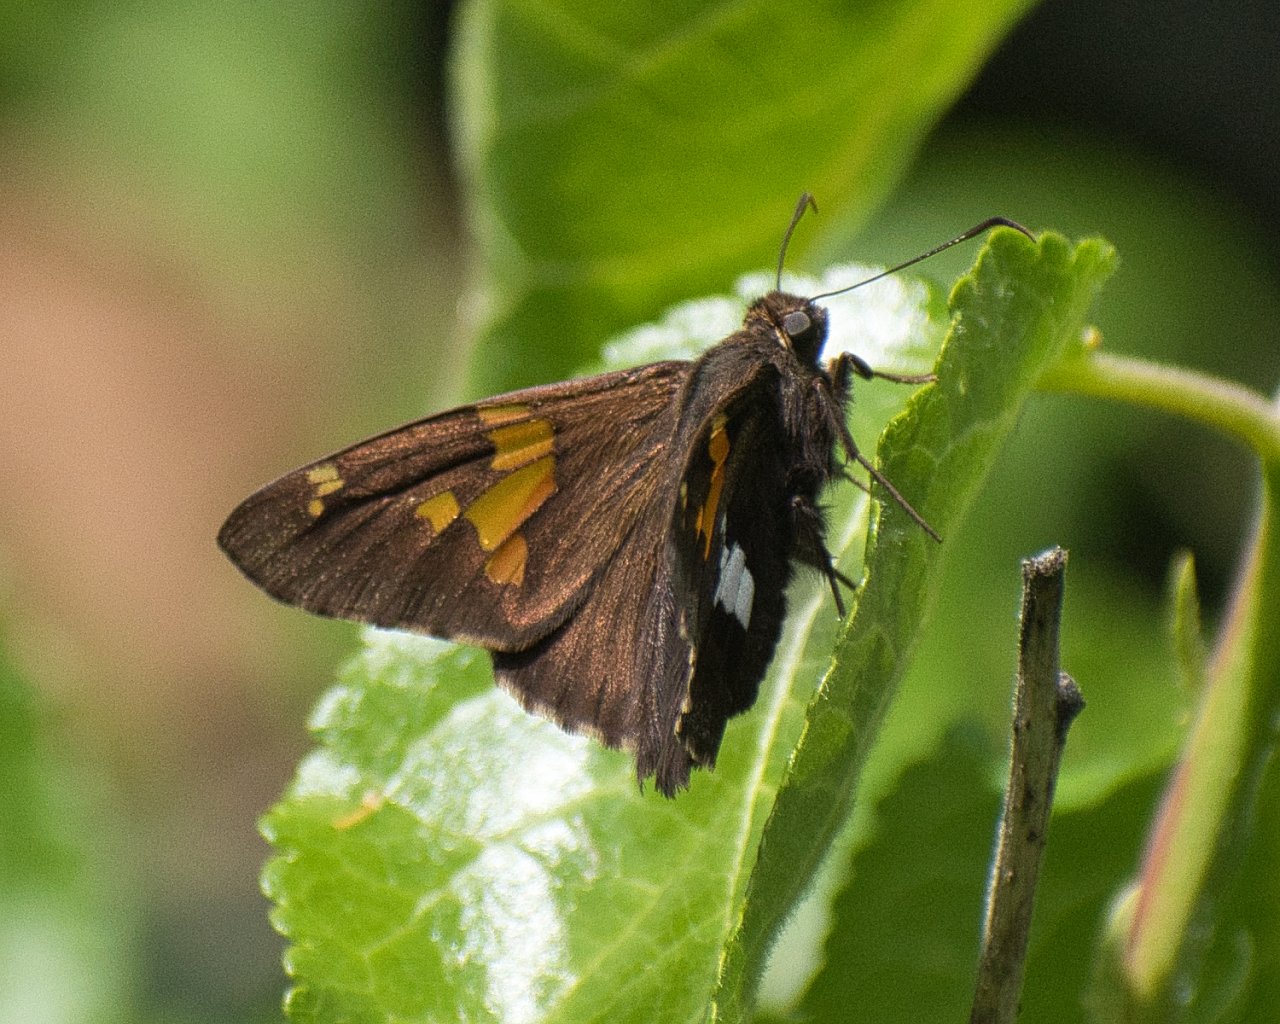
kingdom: Animalia
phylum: Arthropoda
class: Insecta
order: Lepidoptera
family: Hesperiidae
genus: Epargyreus
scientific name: Epargyreus clarus
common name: Silver-spotted Skipper
